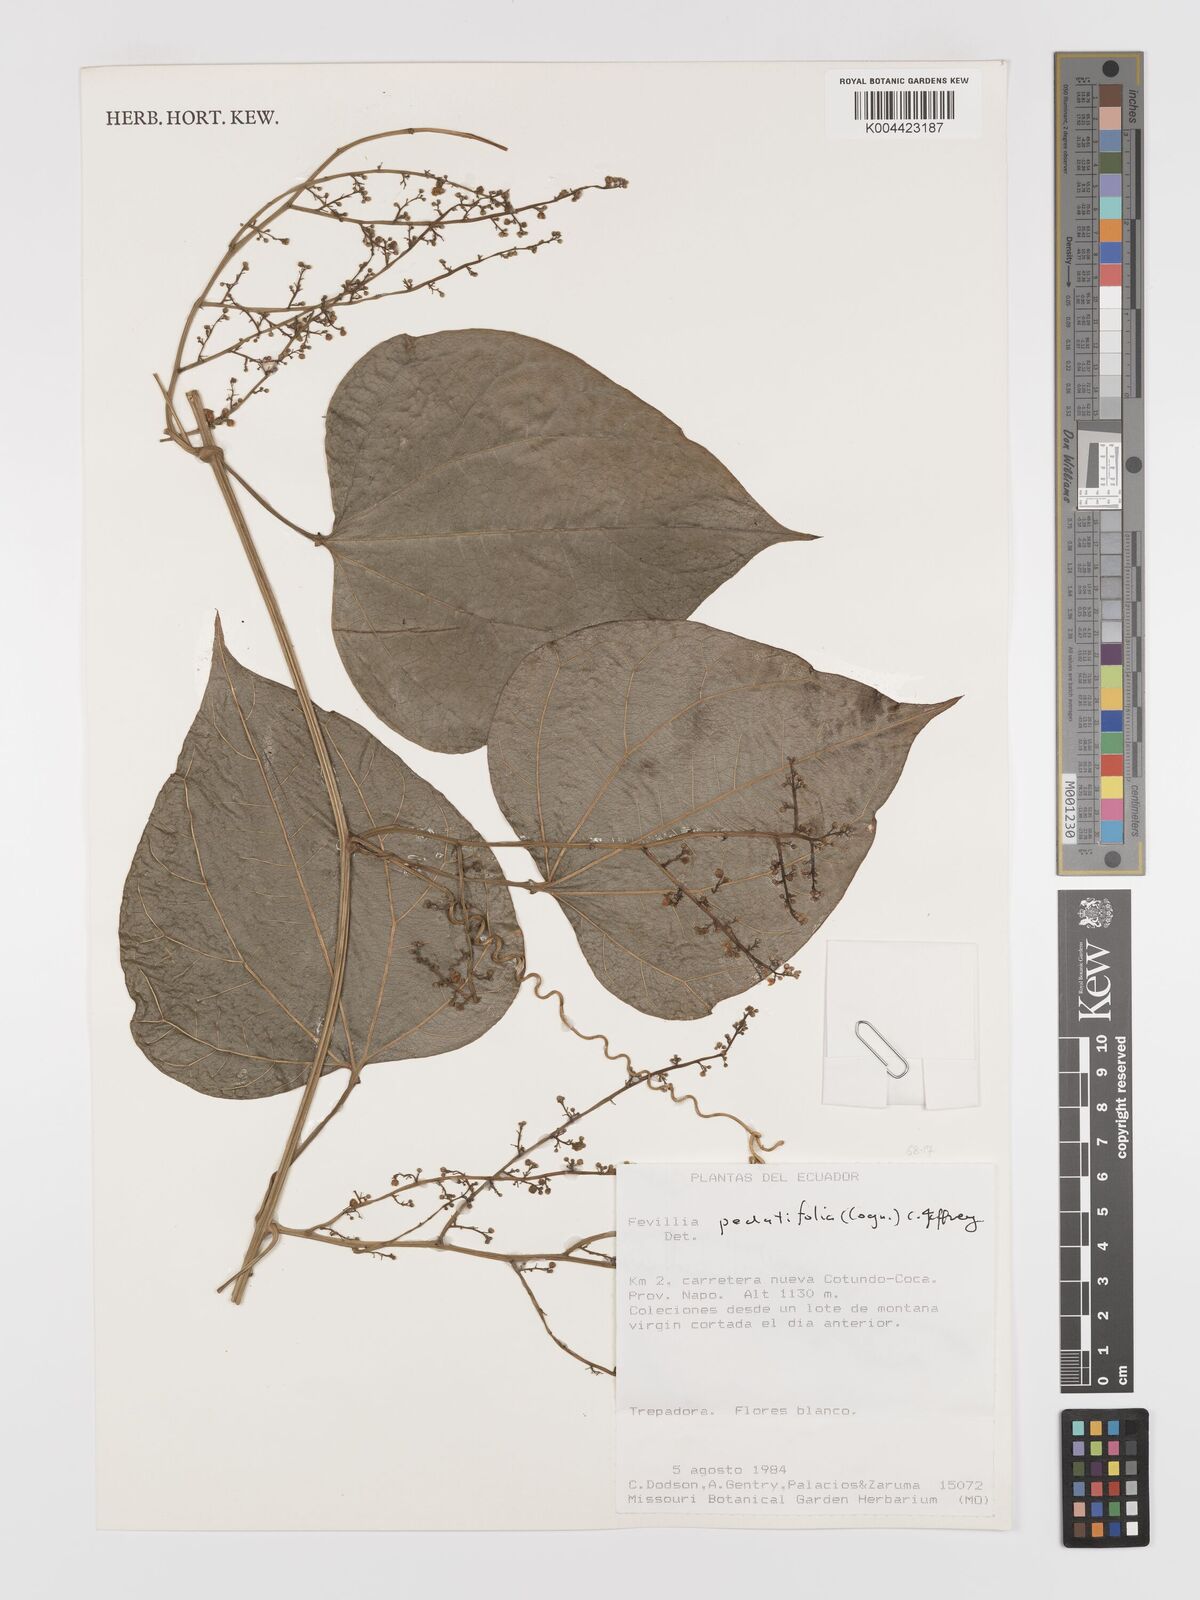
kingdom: Plantae
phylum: Tracheophyta
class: Magnoliopsida
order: Cucurbitales
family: Cucurbitaceae
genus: Fevillea
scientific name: Fevillea pedatifolia
